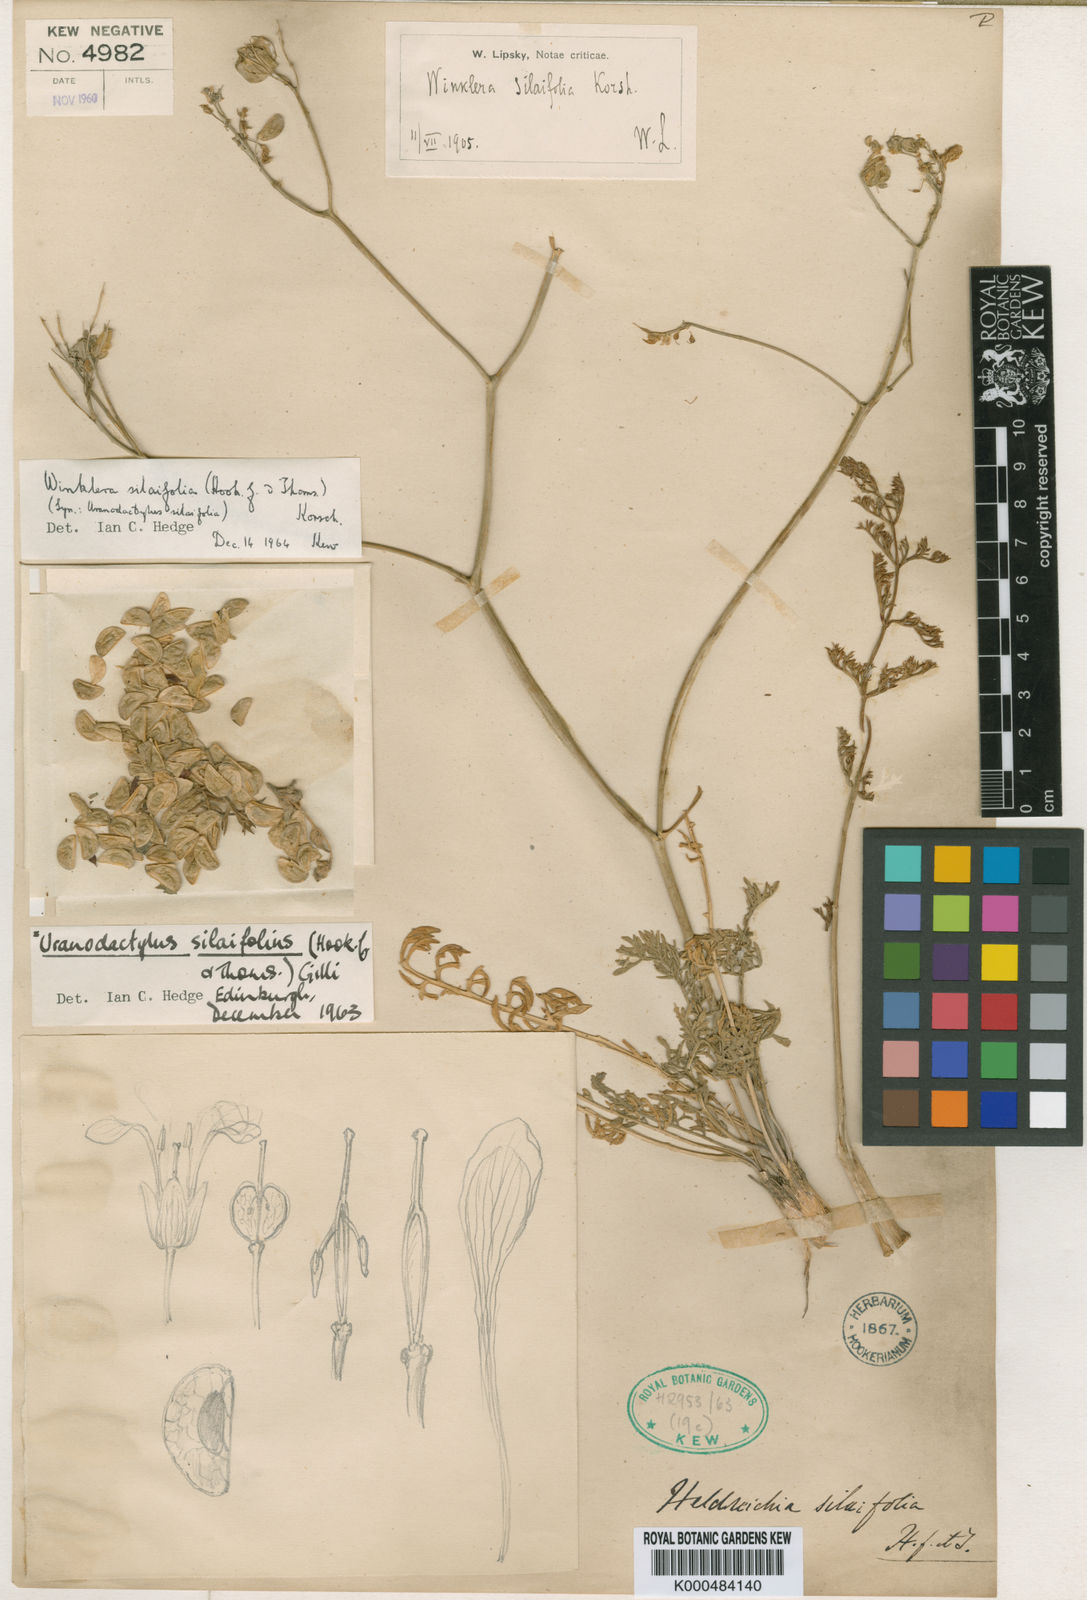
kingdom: Plantae
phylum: Tracheophyta
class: Magnoliopsida
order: Brassicales
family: Brassicaceae
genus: Lepidium
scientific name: Lepidium silaifolium
